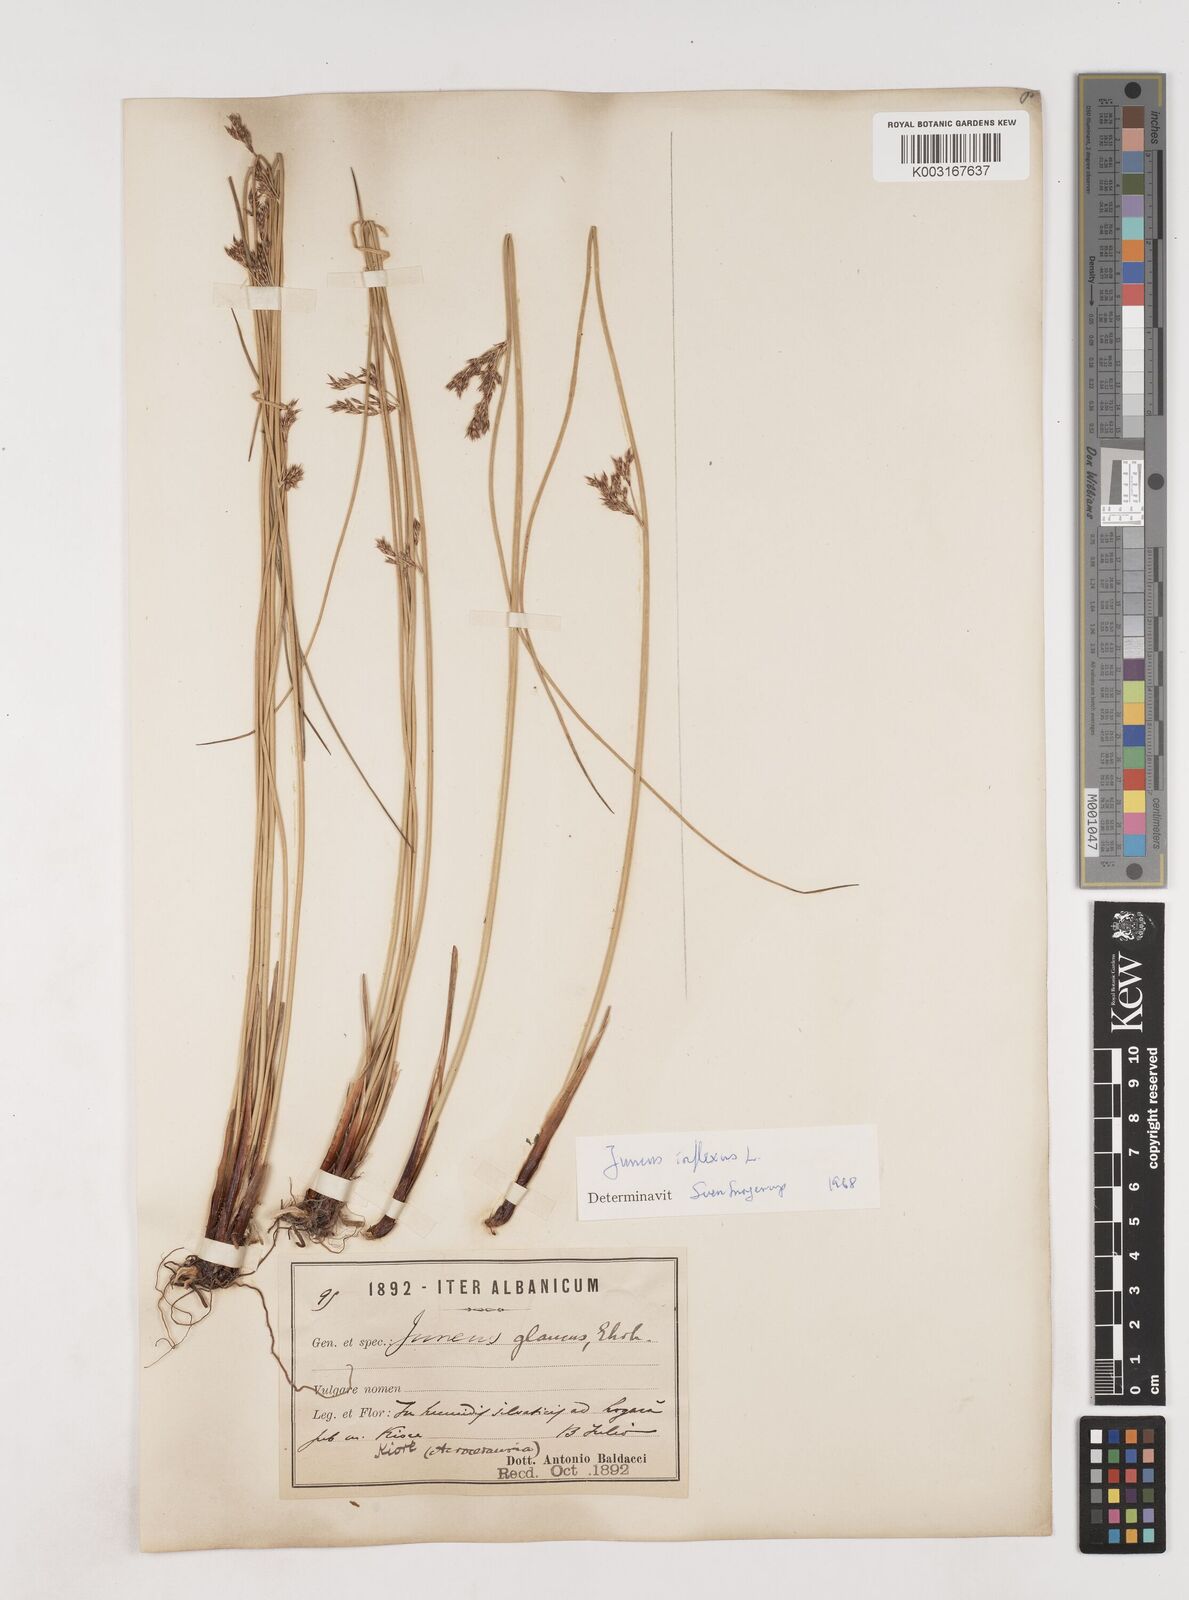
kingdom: Plantae
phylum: Tracheophyta
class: Liliopsida
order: Poales
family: Juncaceae
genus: Juncus
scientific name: Juncus inflexus
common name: Hard rush
